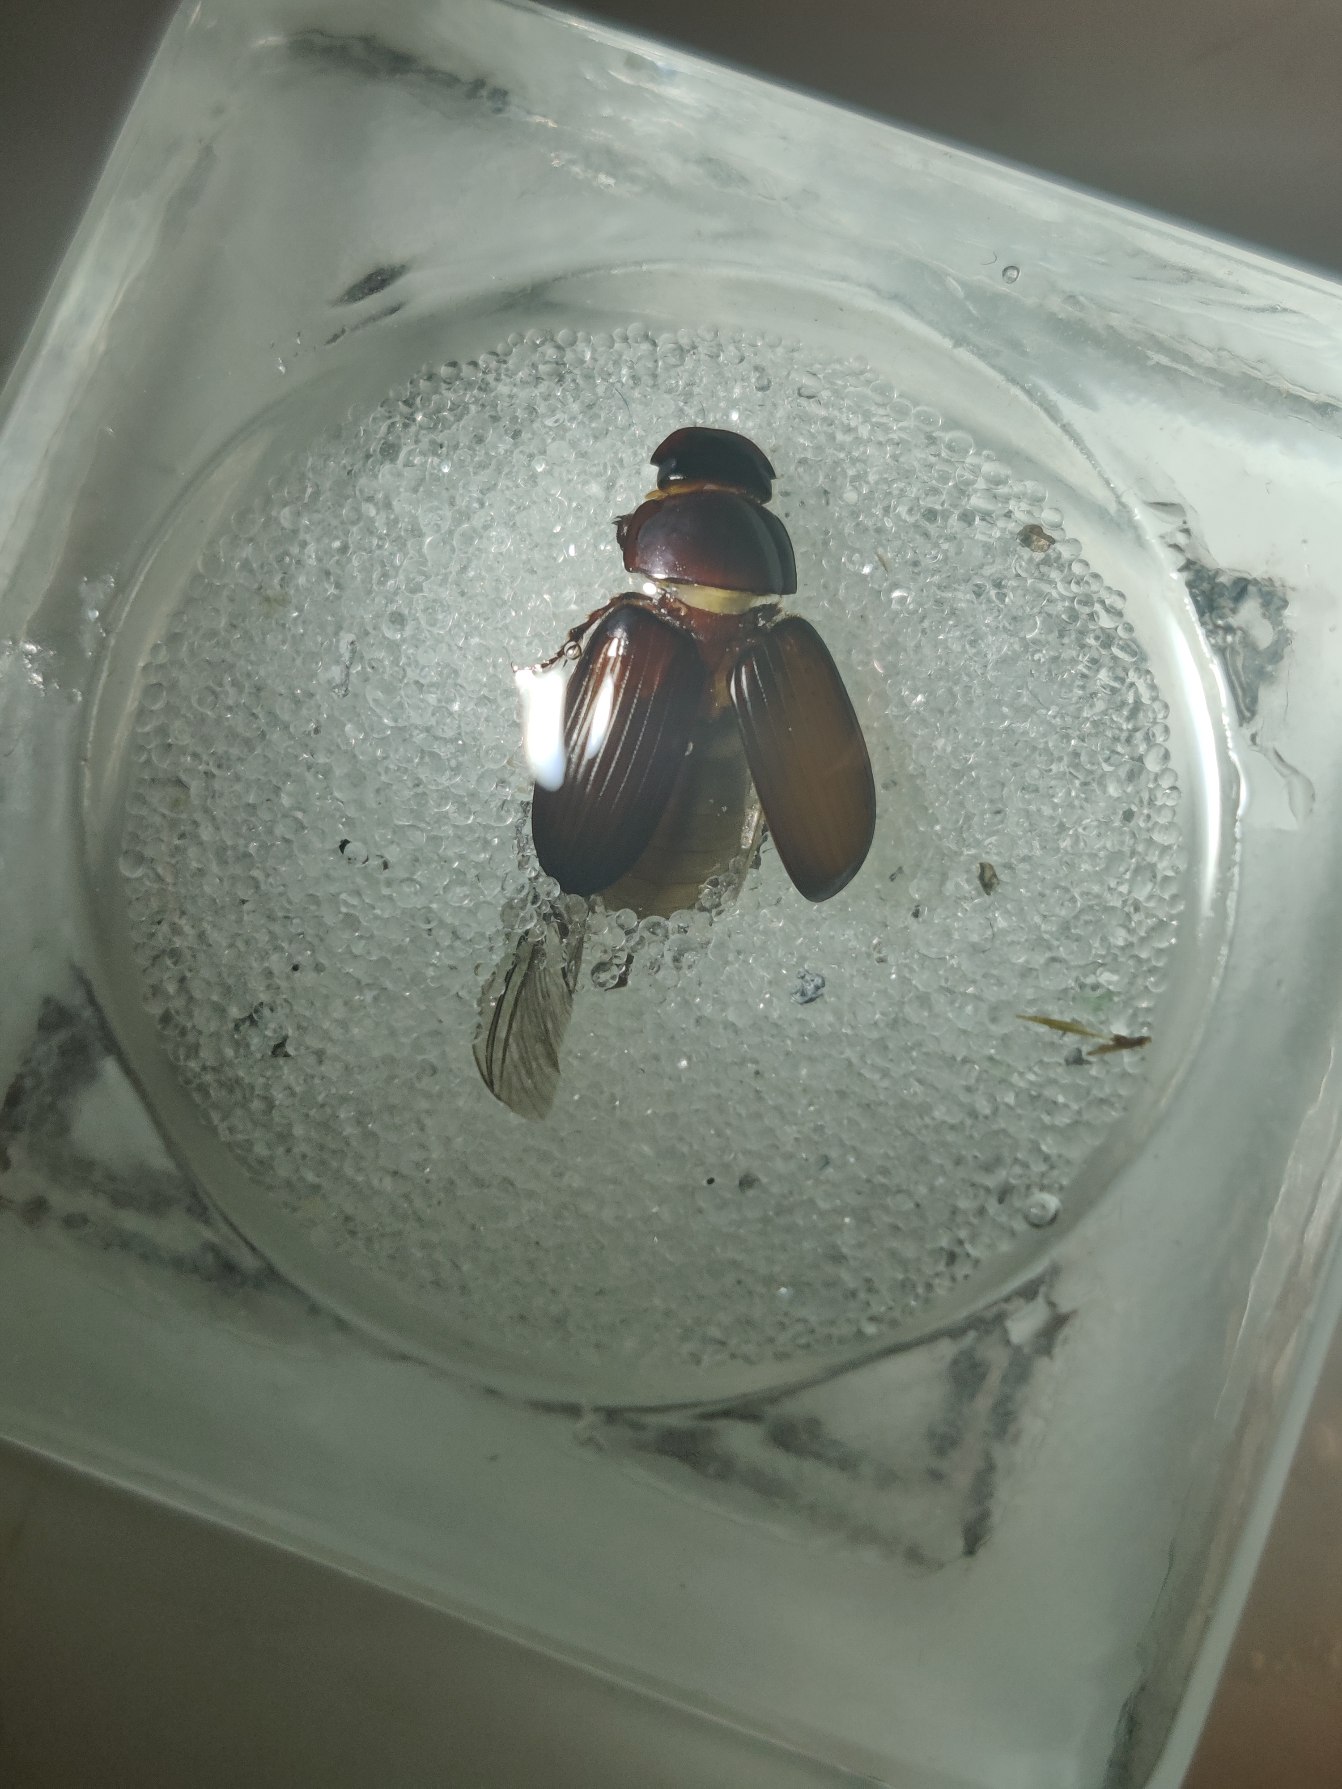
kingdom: Animalia
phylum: Arthropoda
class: Insecta
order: Coleoptera
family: Scarabaeidae
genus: Acrossus
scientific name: Acrossus rufipes
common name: Rødbenet møgbille
